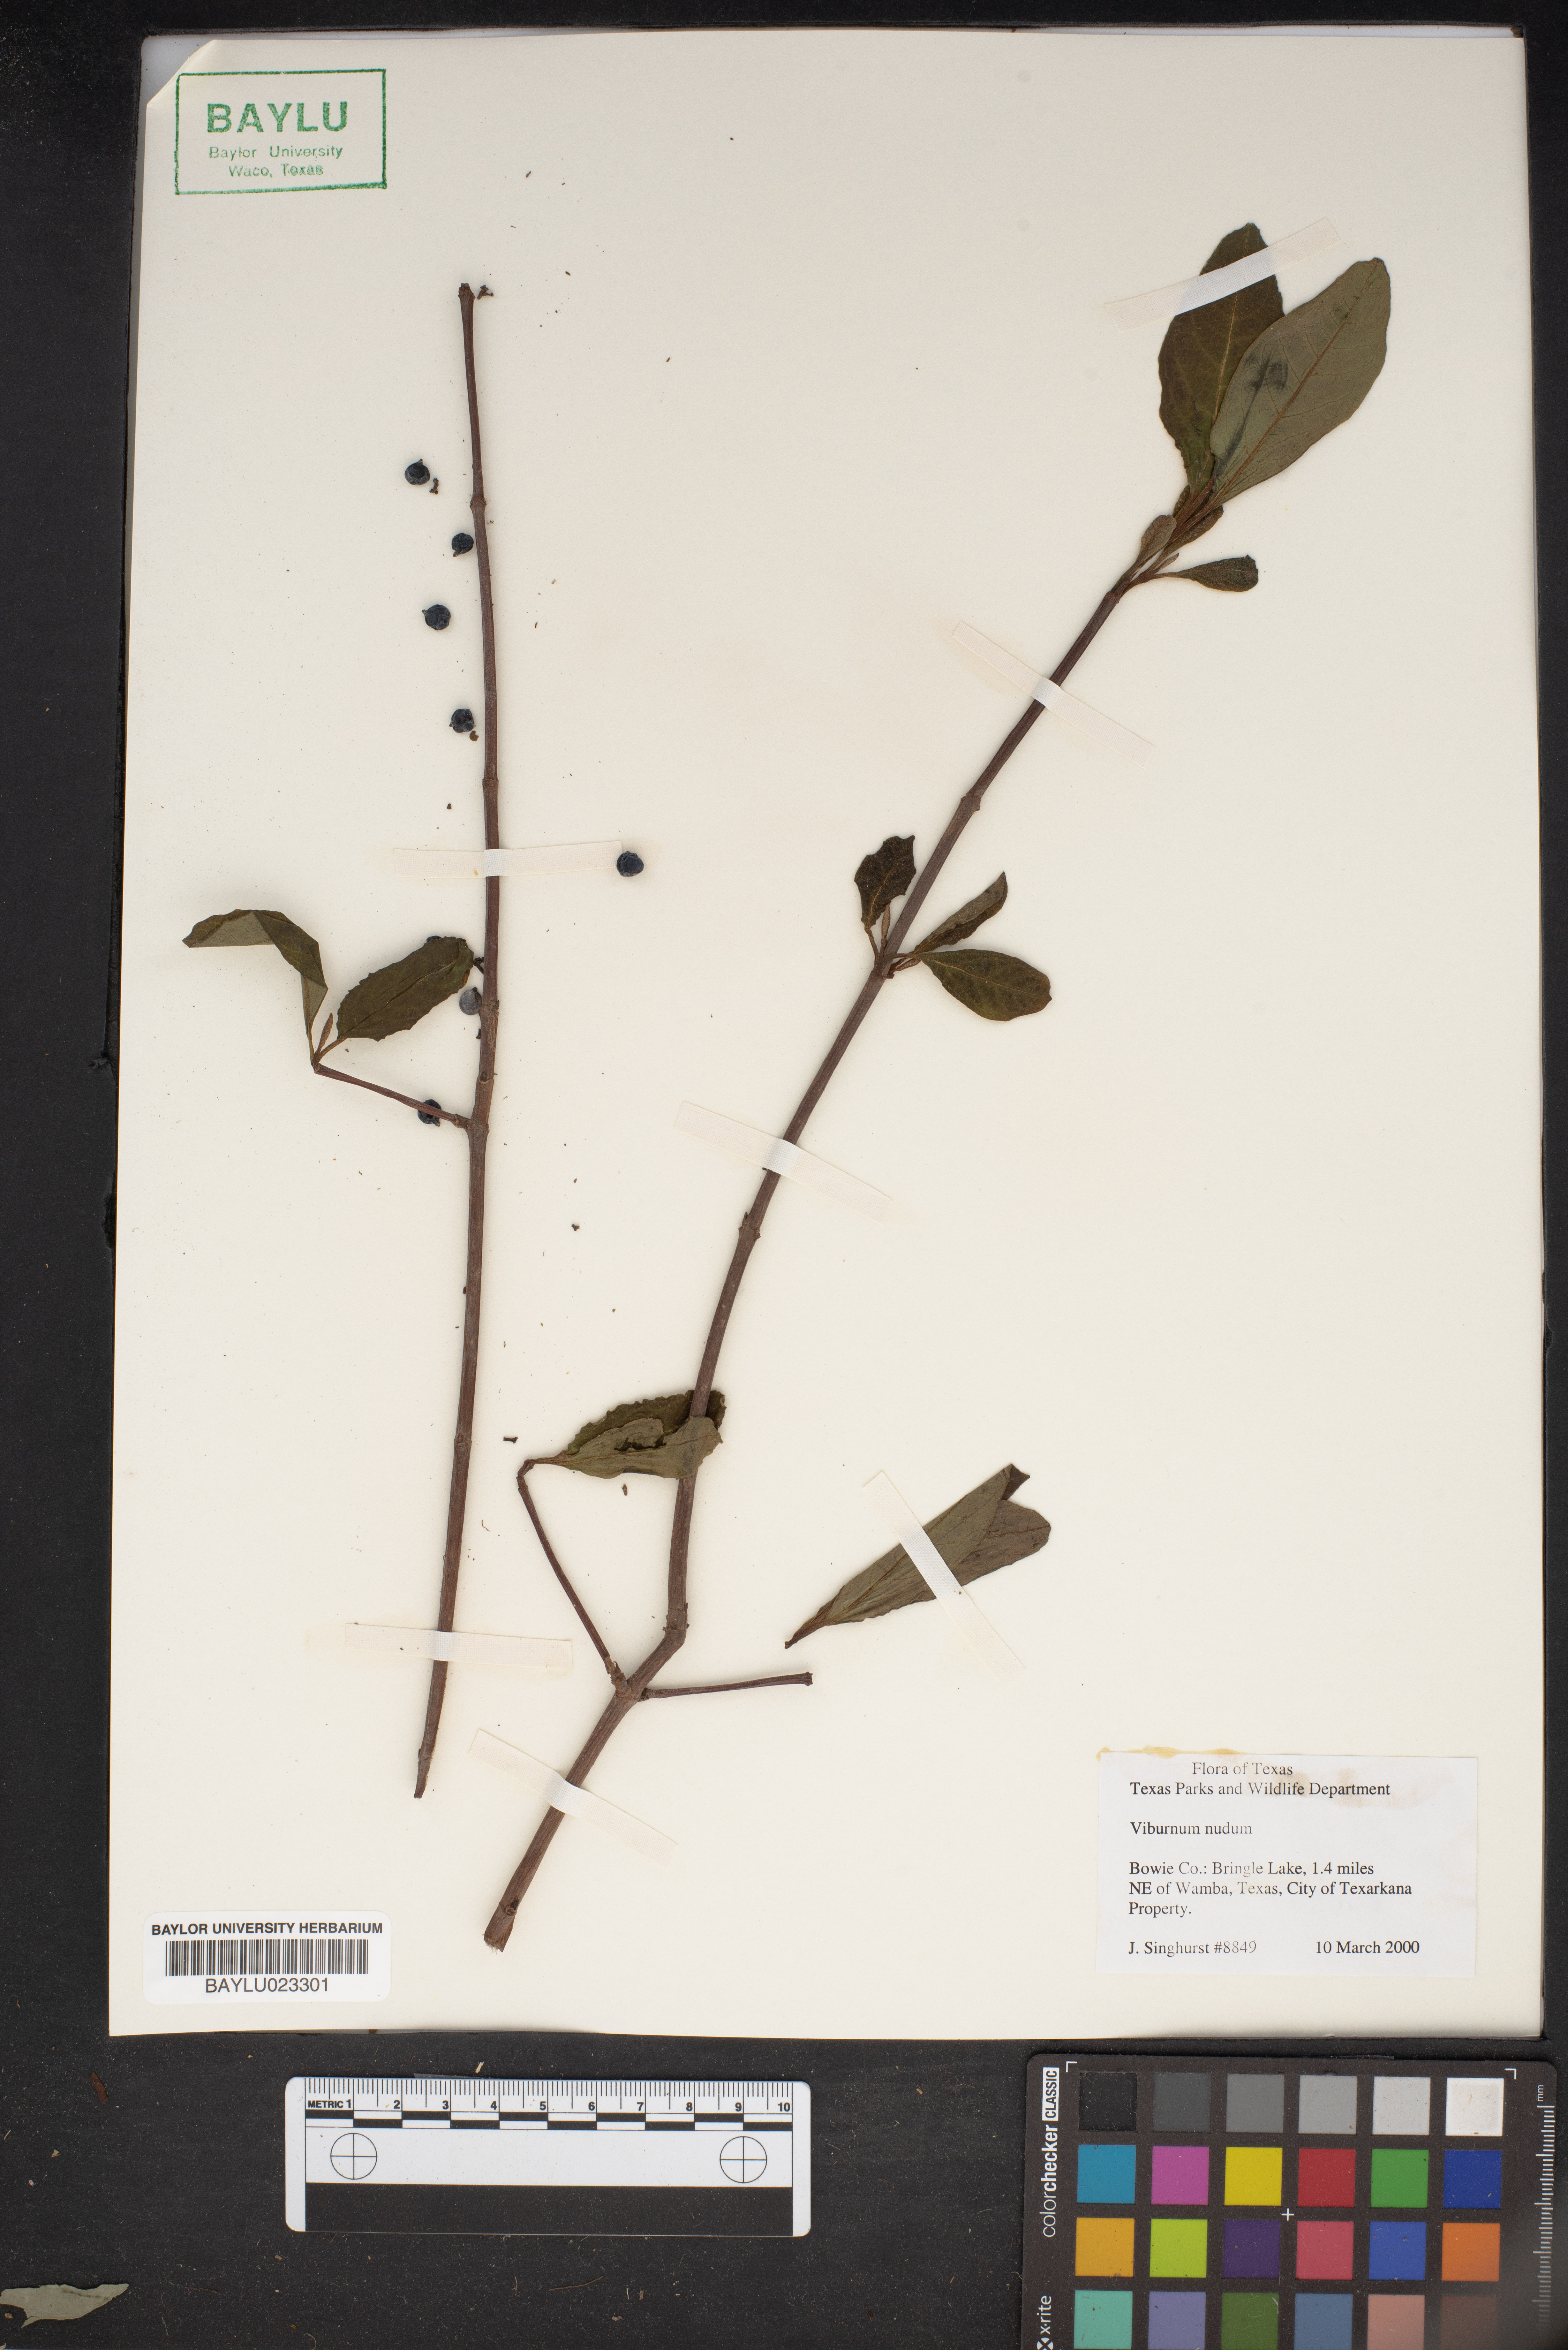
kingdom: Plantae
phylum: Tracheophyta
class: Magnoliopsida
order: Dipsacales
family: Viburnaceae
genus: Viburnum
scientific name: Viburnum nudum
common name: Possum haw
